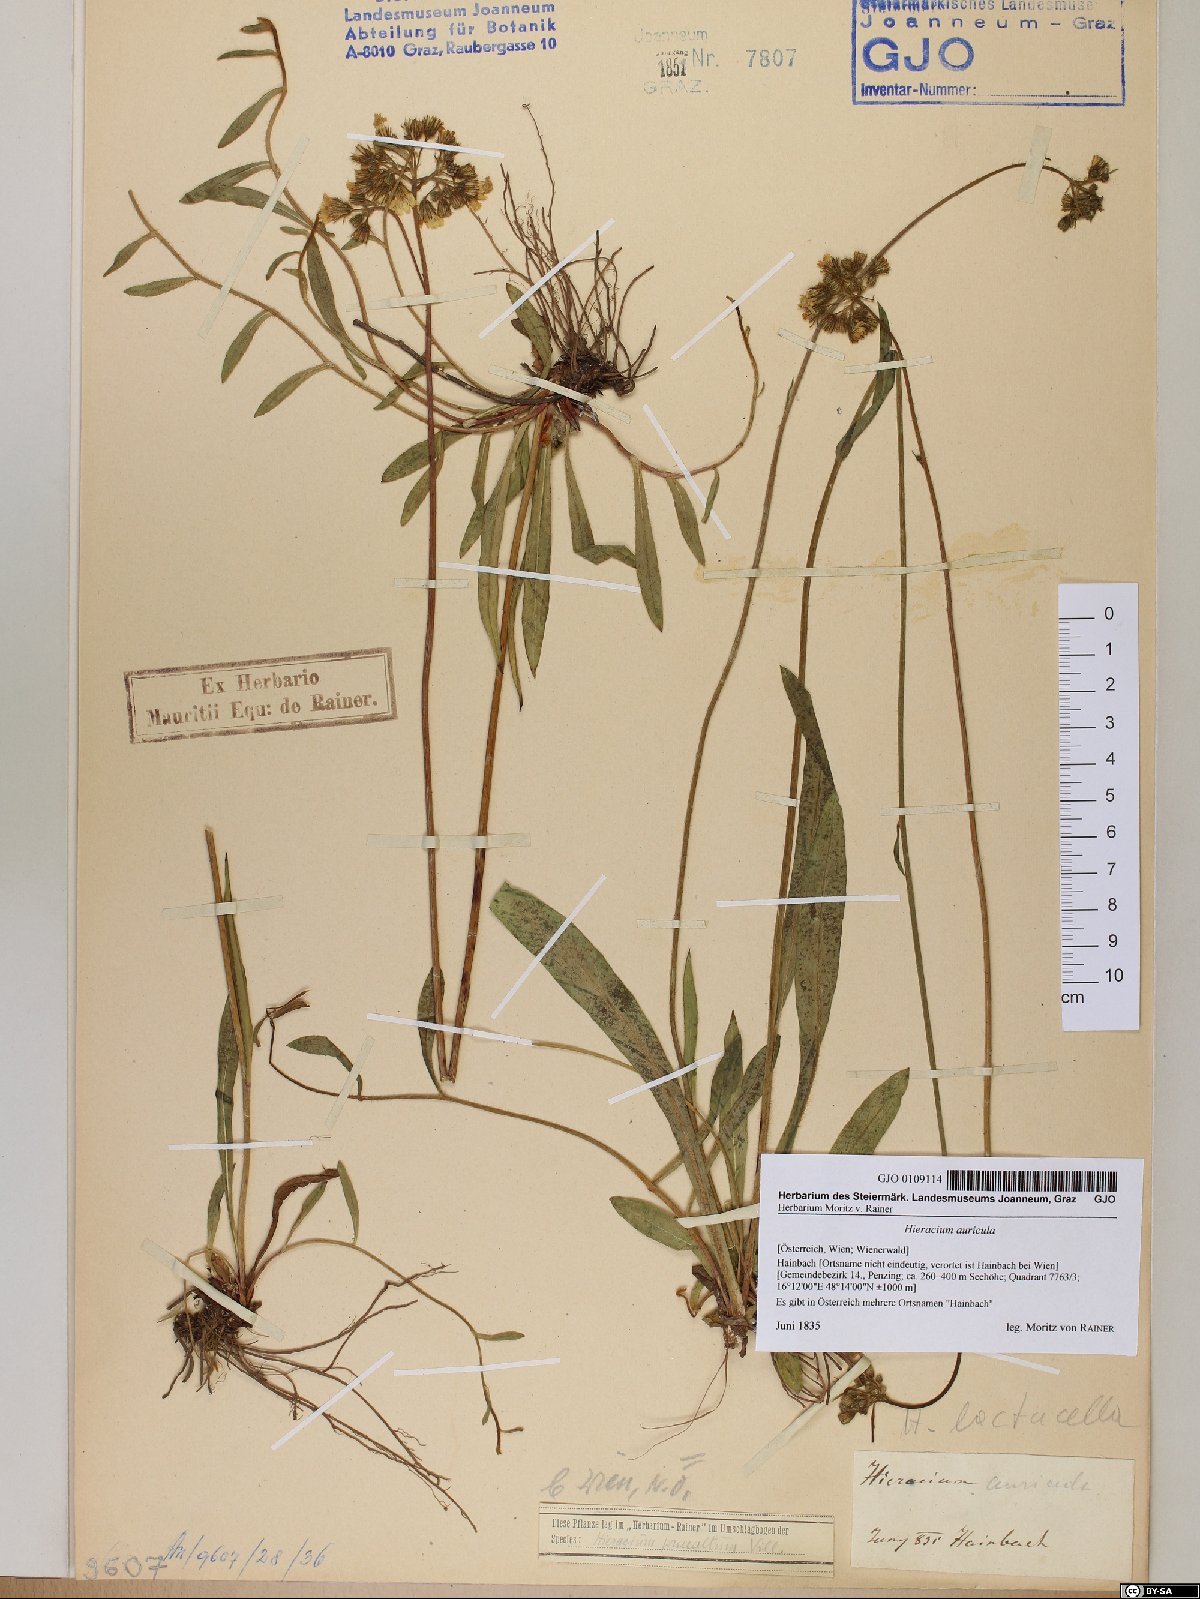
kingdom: Plantae
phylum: Tracheophyta
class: Magnoliopsida
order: Asterales
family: Asteraceae
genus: Hieracium
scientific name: Hieracium auricula
